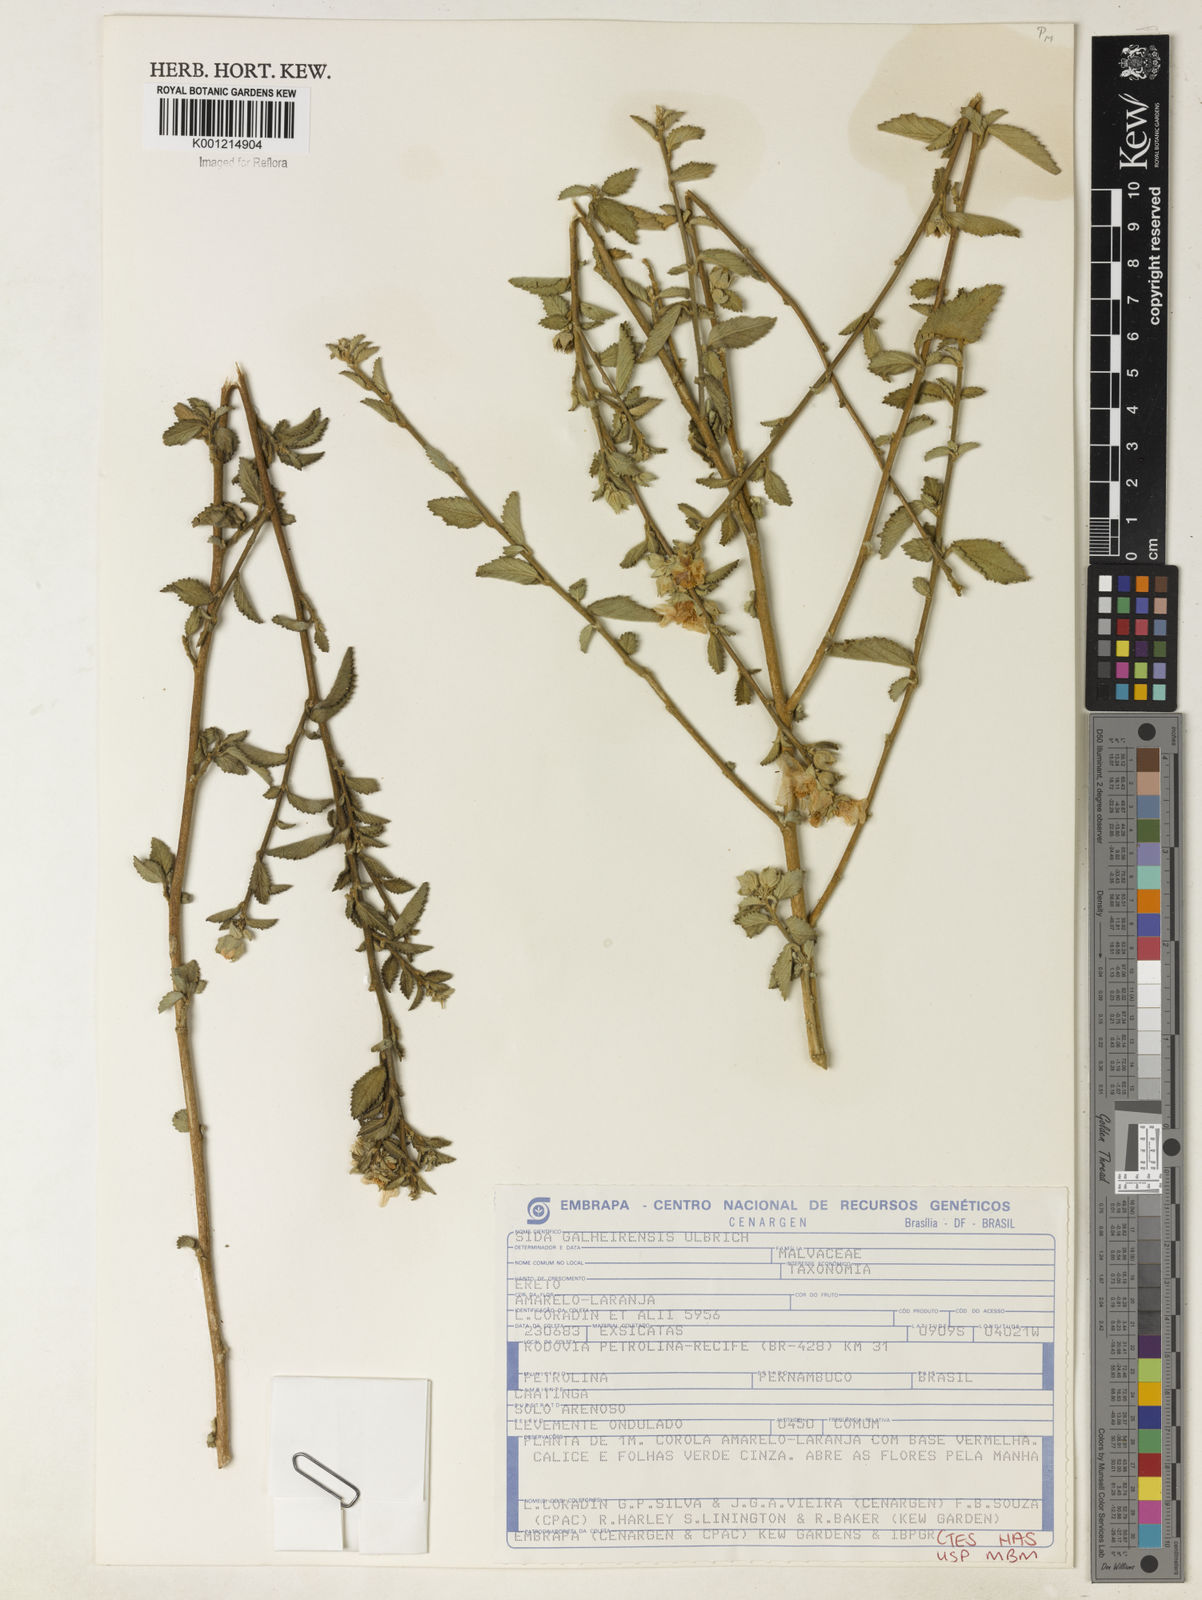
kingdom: Plantae
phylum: Tracheophyta
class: Magnoliopsida
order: Malvales
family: Malvaceae
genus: Sida
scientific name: Sida galheirensis
